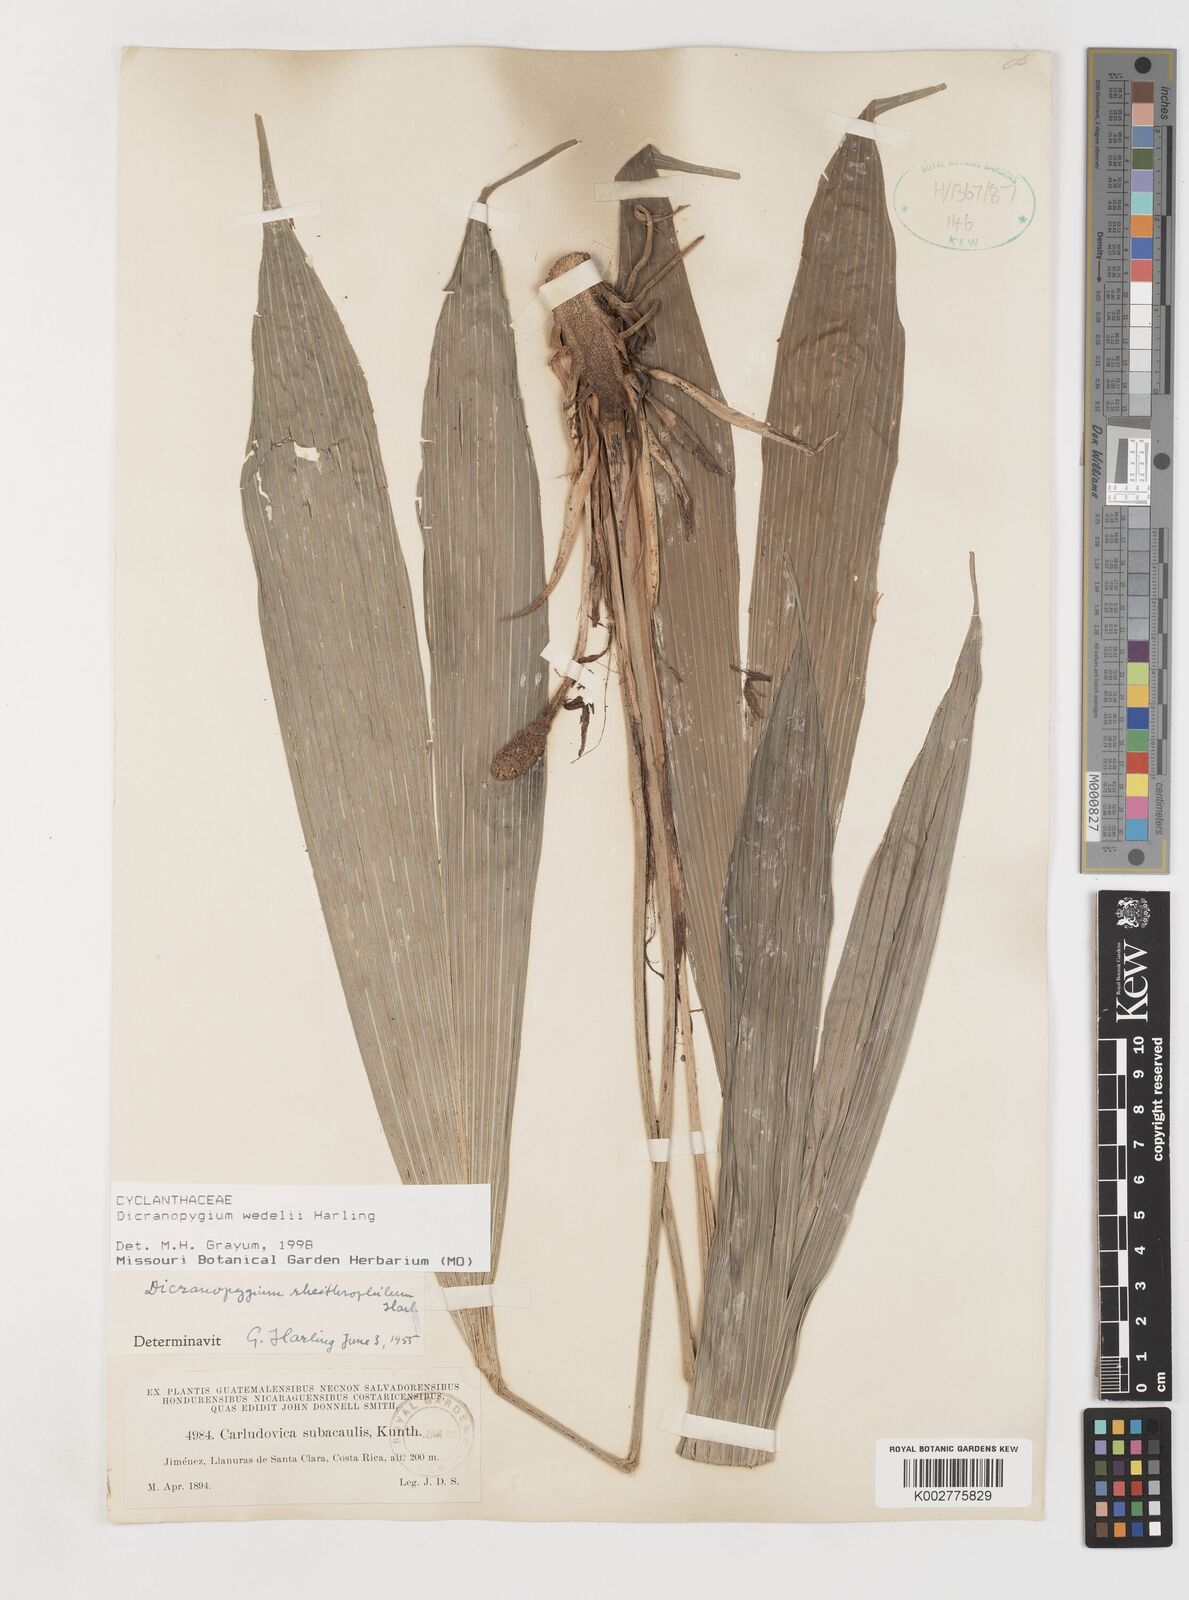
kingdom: Plantae
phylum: Tracheophyta
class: Liliopsida
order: Pandanales
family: Cyclanthaceae
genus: Dicranopygium
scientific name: Dicranopygium wedelii
